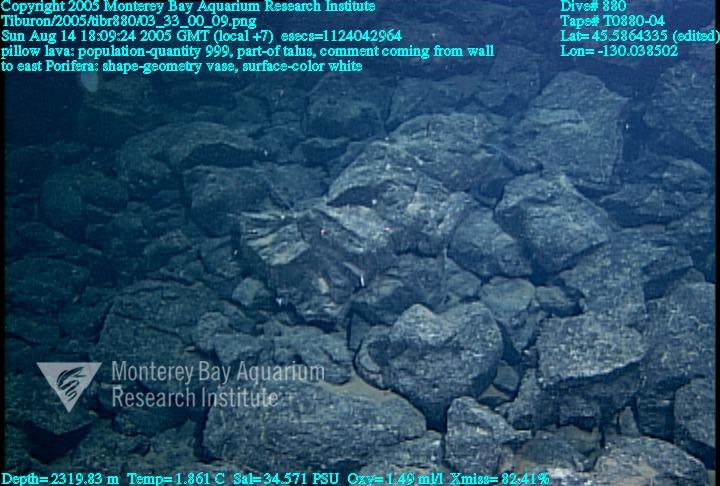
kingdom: Animalia
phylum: Porifera
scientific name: Porifera
